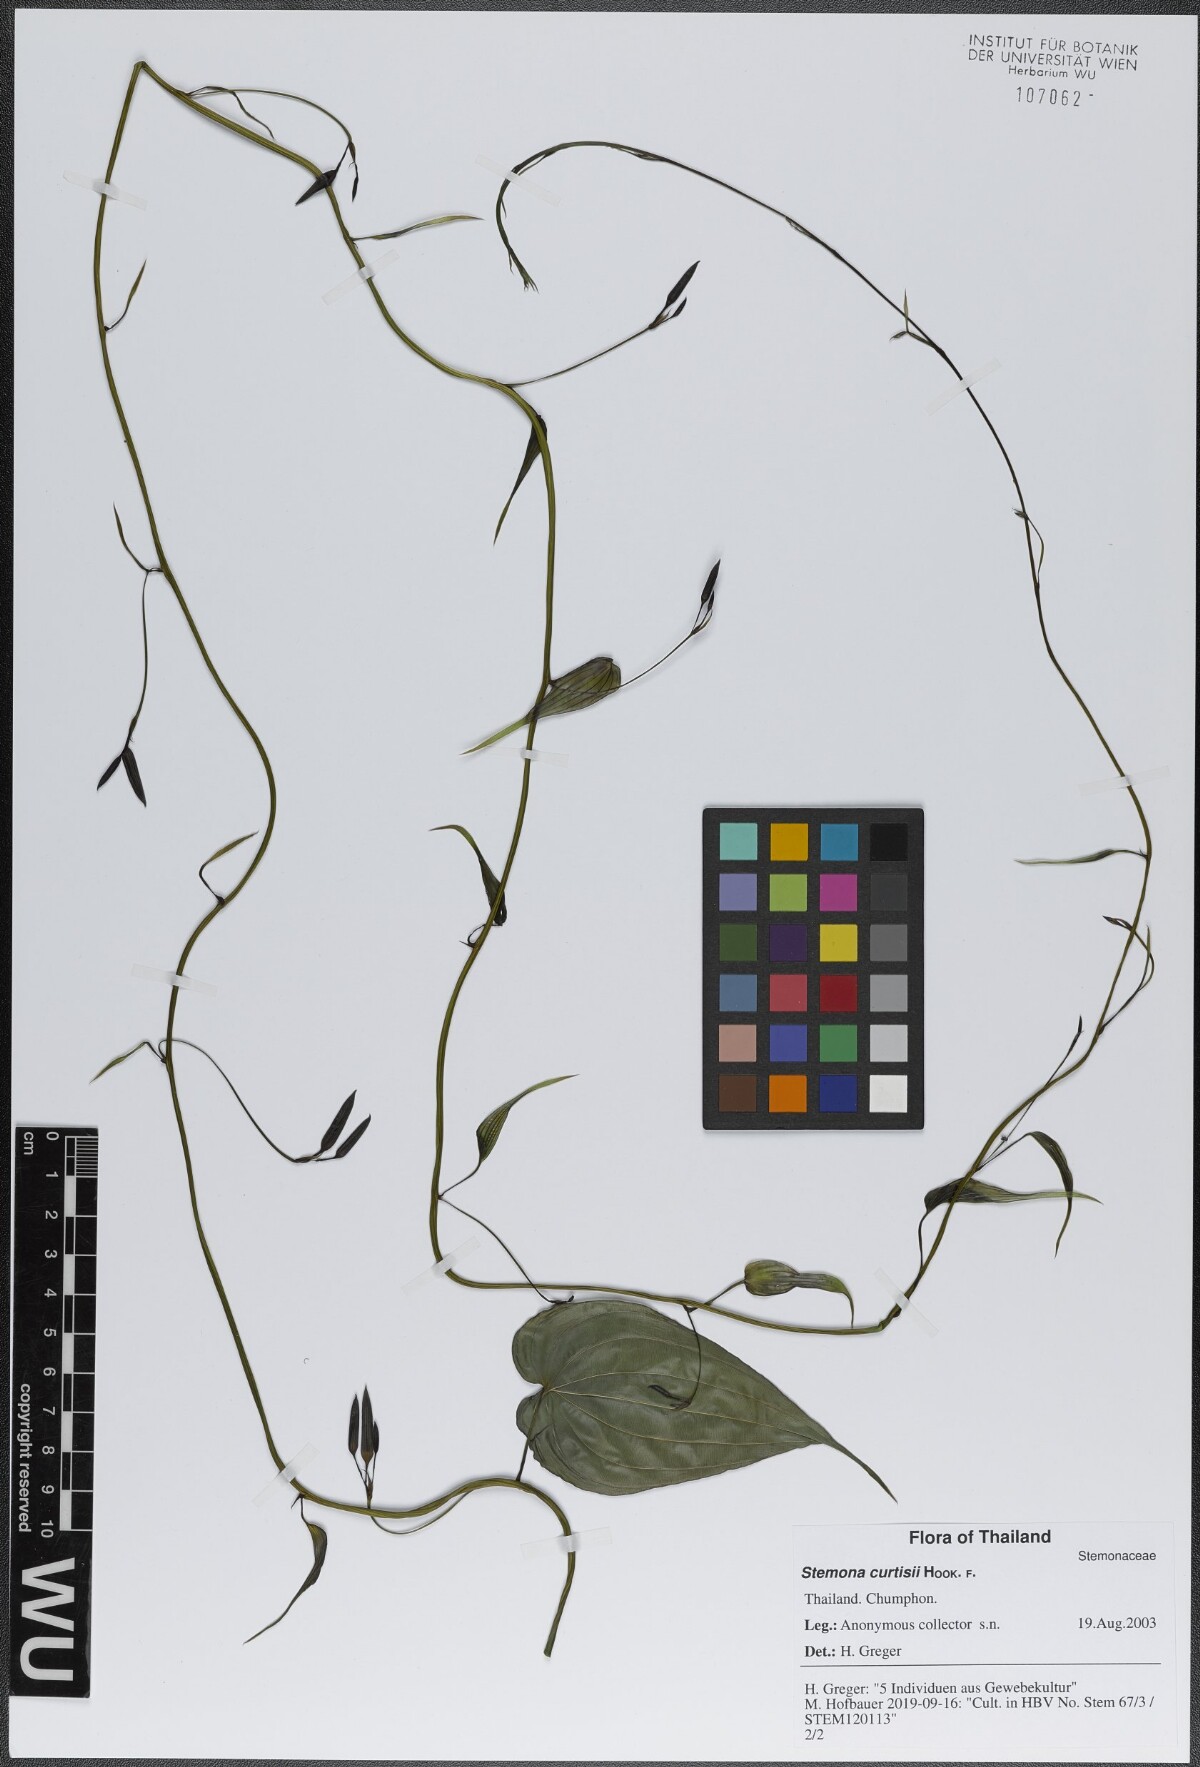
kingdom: Plantae
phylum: Tracheophyta
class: Liliopsida
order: Pandanales
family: Stemonaceae
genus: Stemona
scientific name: Stemona curtisii
